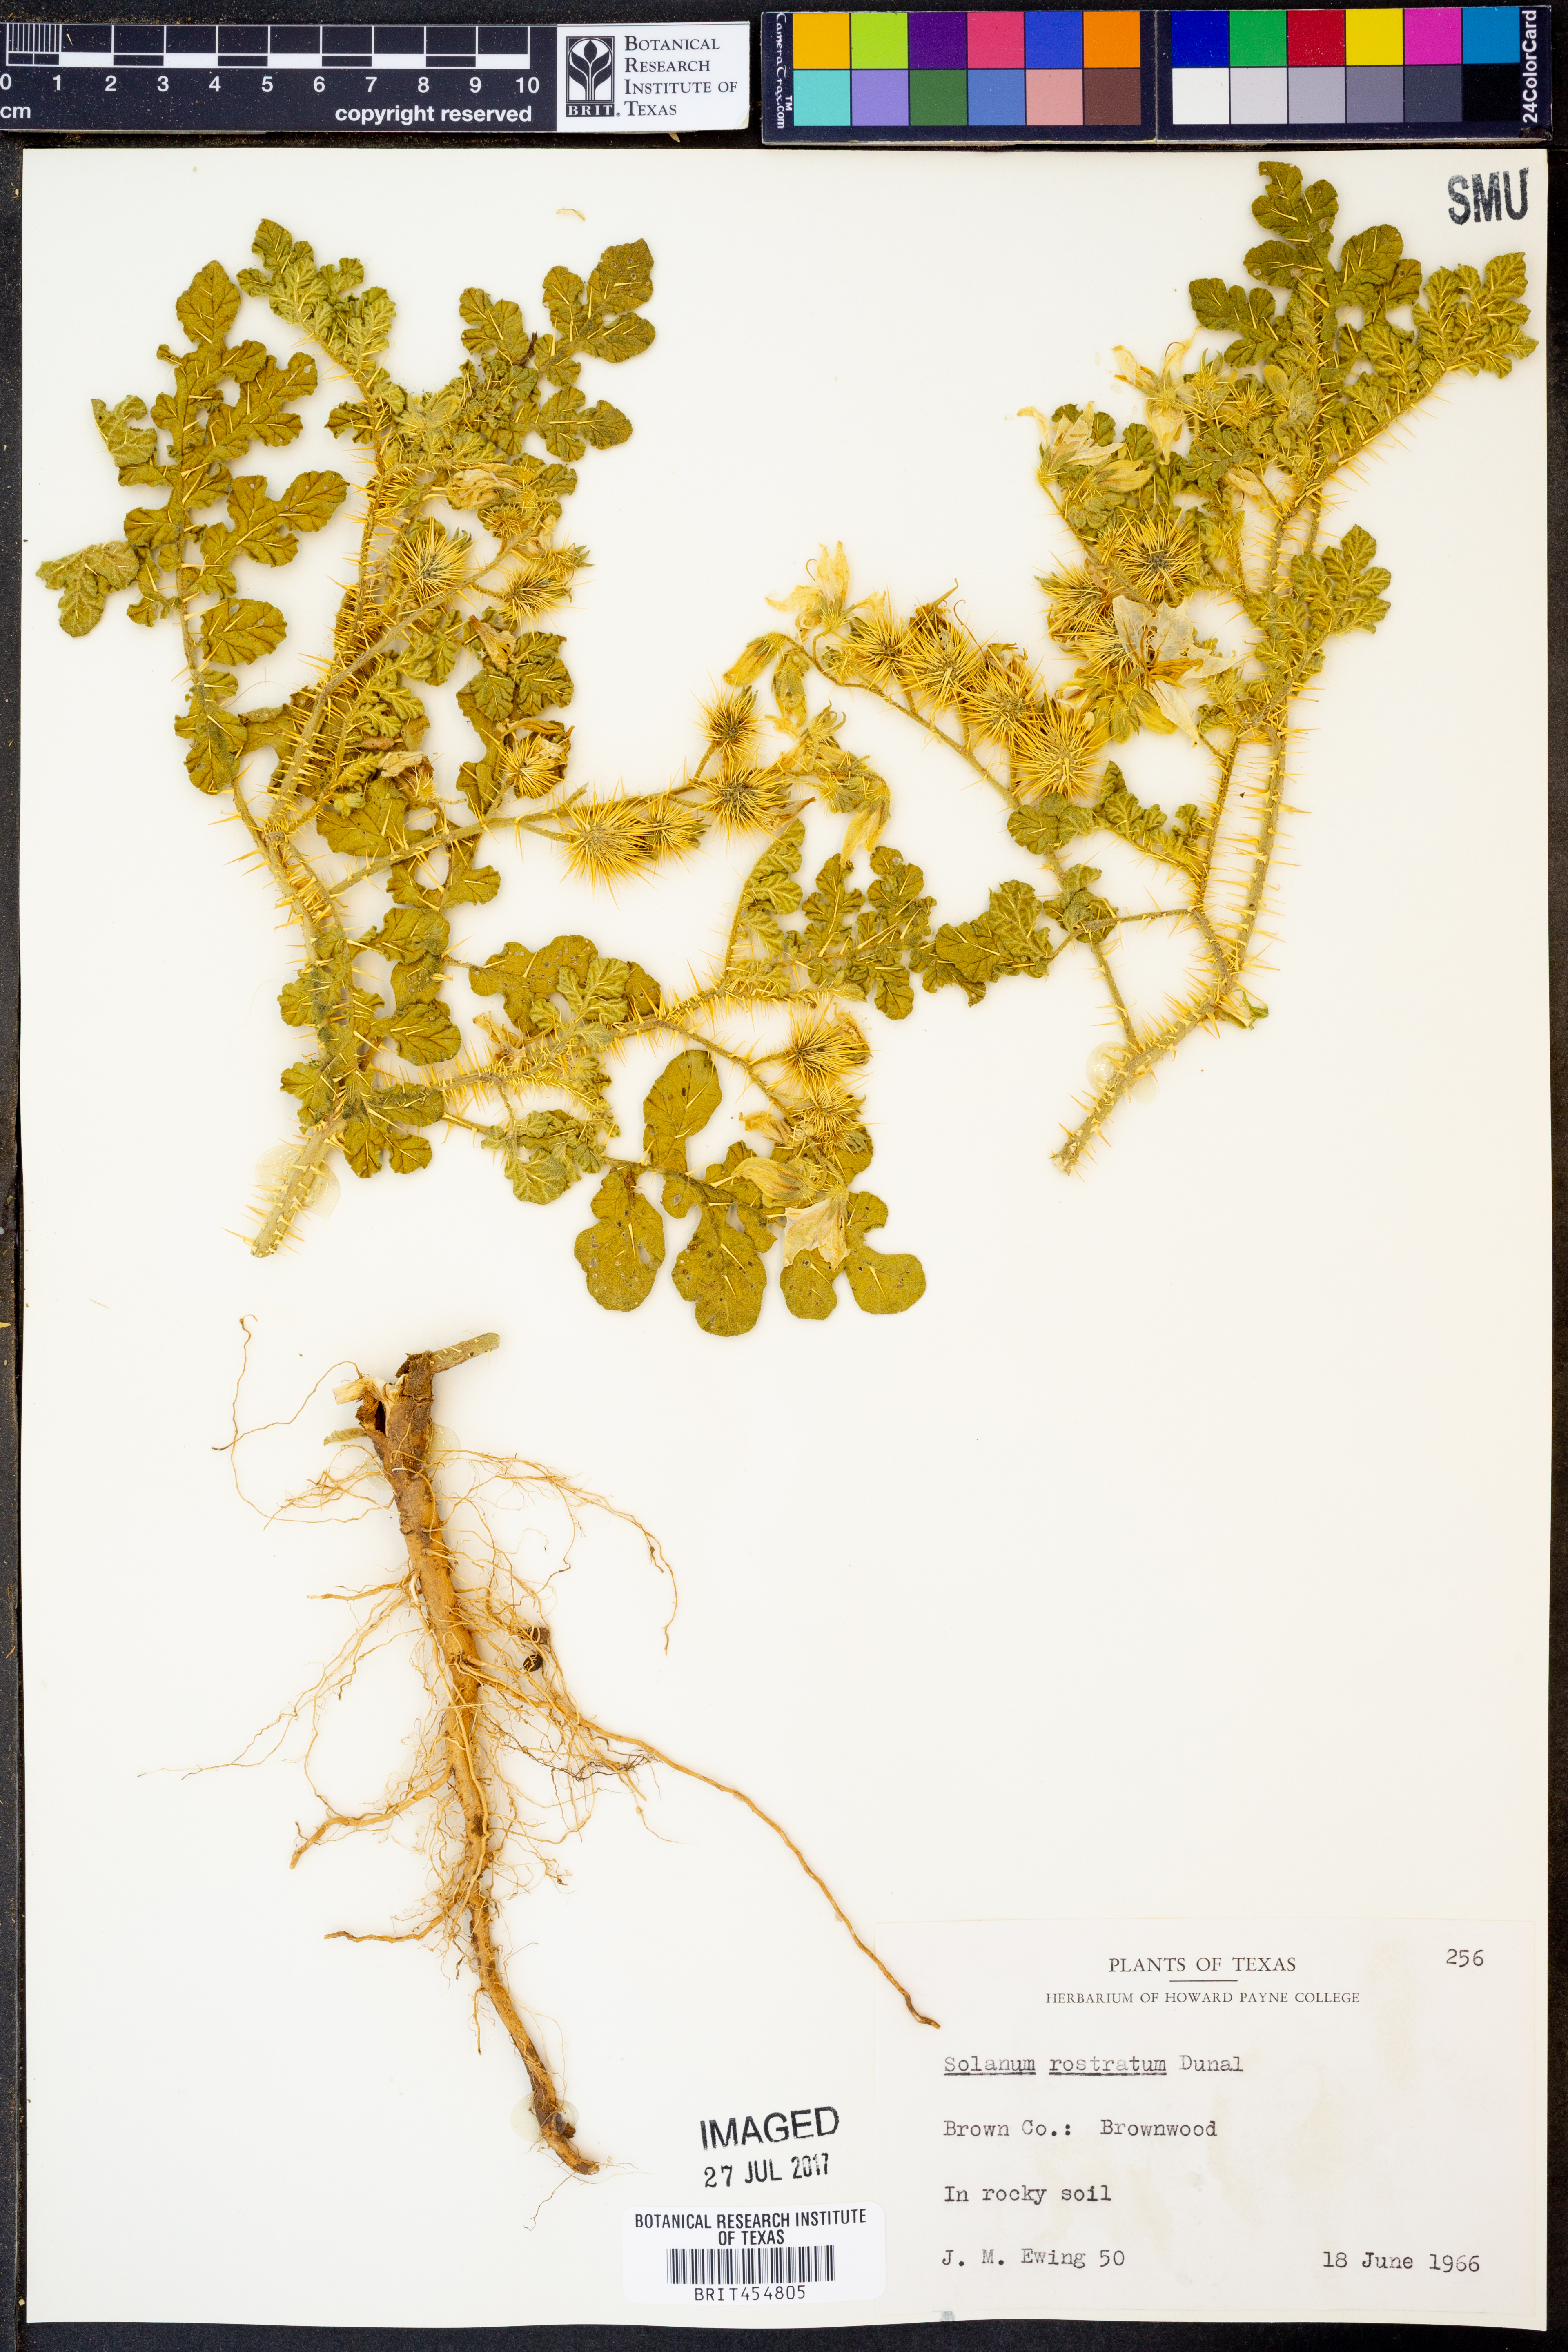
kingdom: Plantae
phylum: Tracheophyta
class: Magnoliopsida
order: Solanales
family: Solanaceae
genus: Solanum
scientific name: Solanum angustifolium
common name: Buffalobur nightshade
